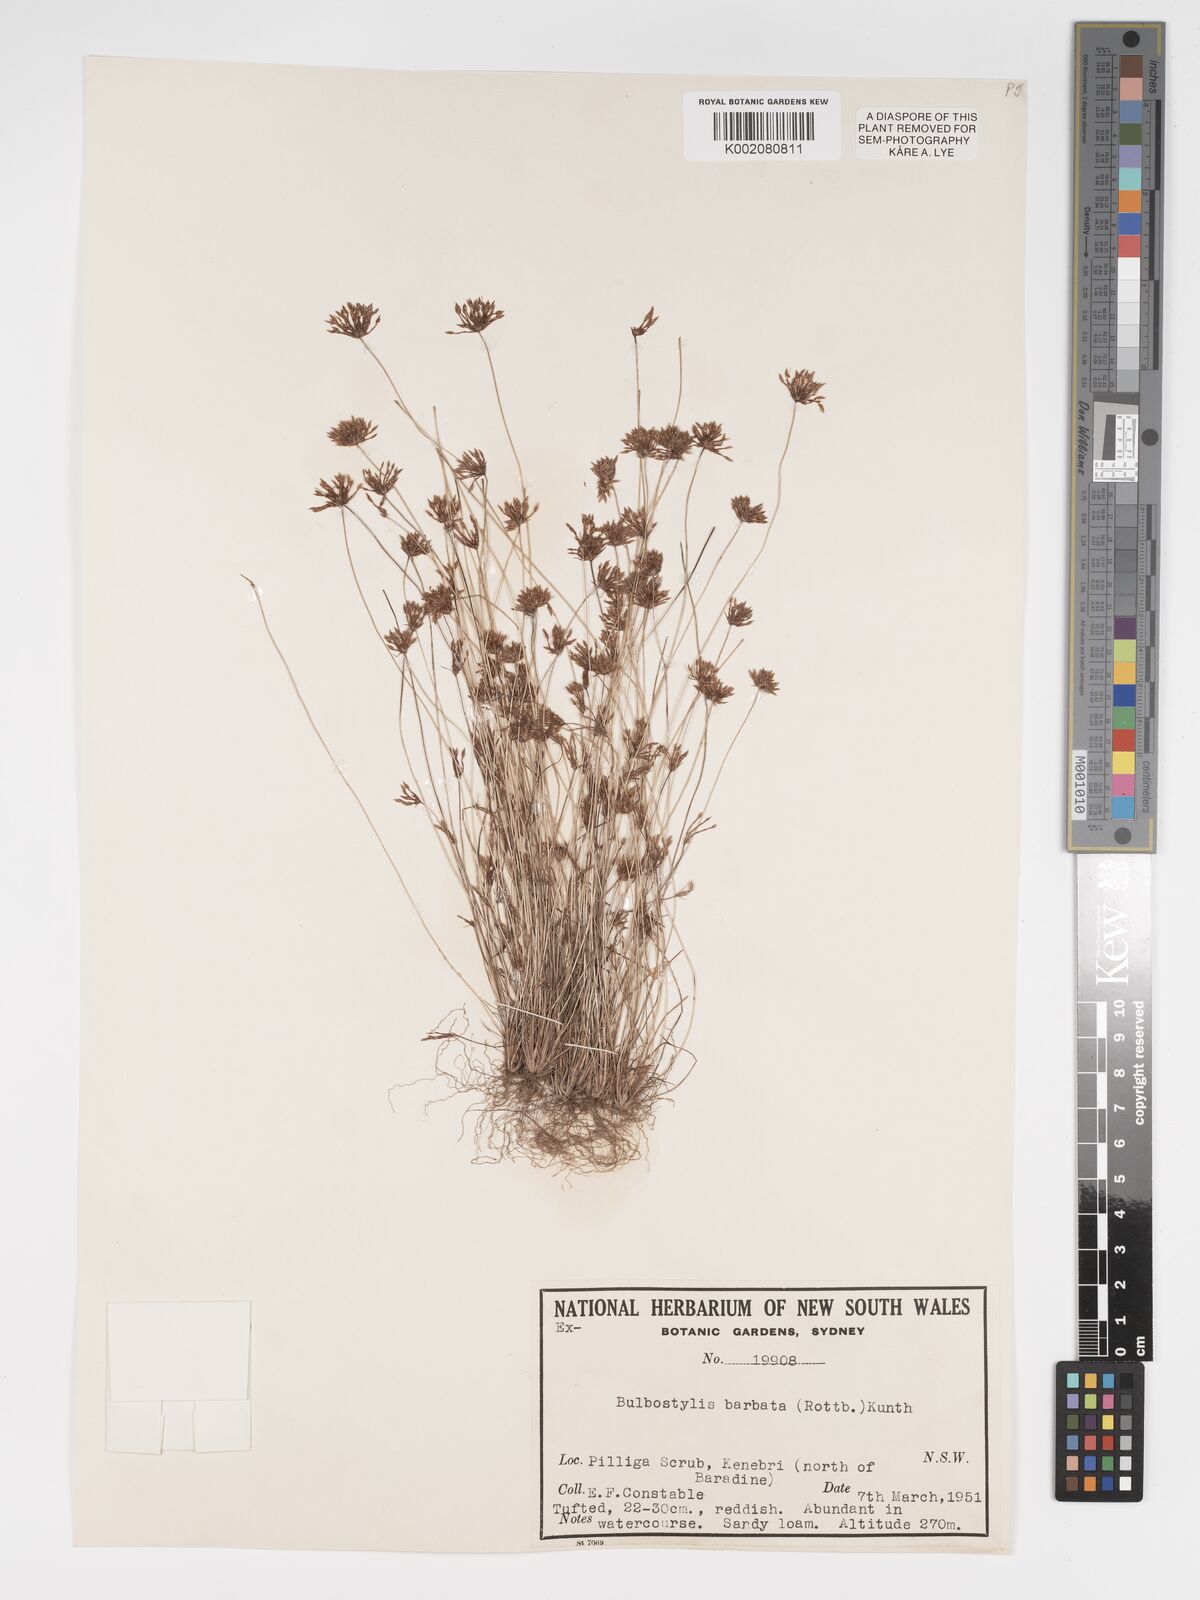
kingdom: Plantae
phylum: Tracheophyta
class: Liliopsida
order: Poales
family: Cyperaceae
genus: Bulbostylis
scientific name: Bulbostylis barbata
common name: Watergrass
